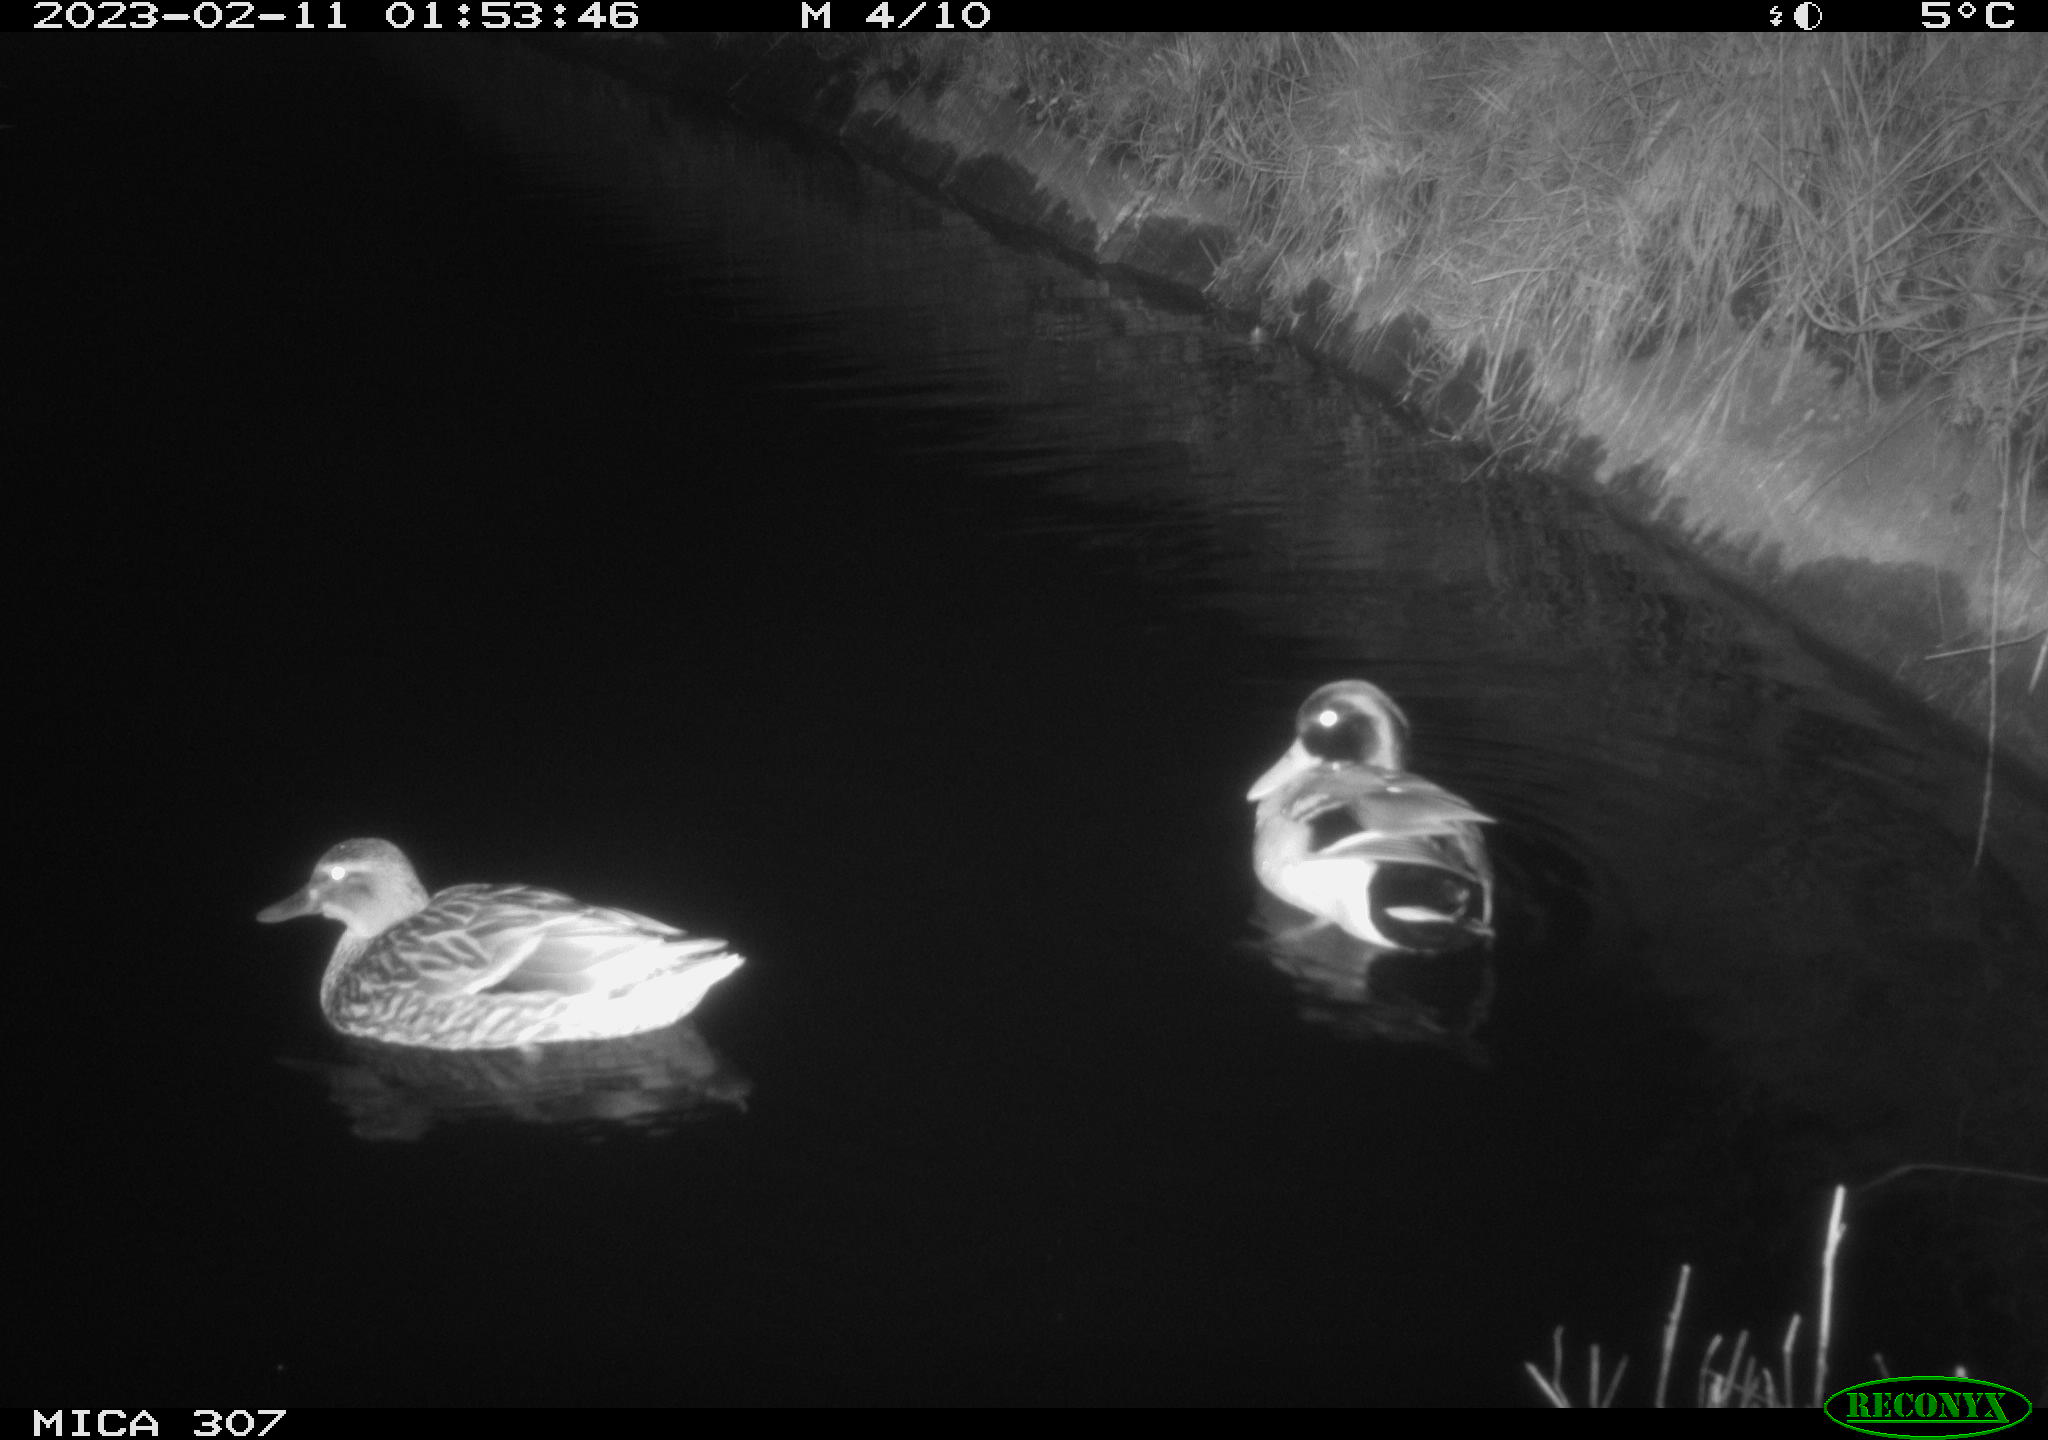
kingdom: Animalia
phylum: Chordata
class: Aves
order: Anseriformes
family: Anatidae
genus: Anas
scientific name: Anas
